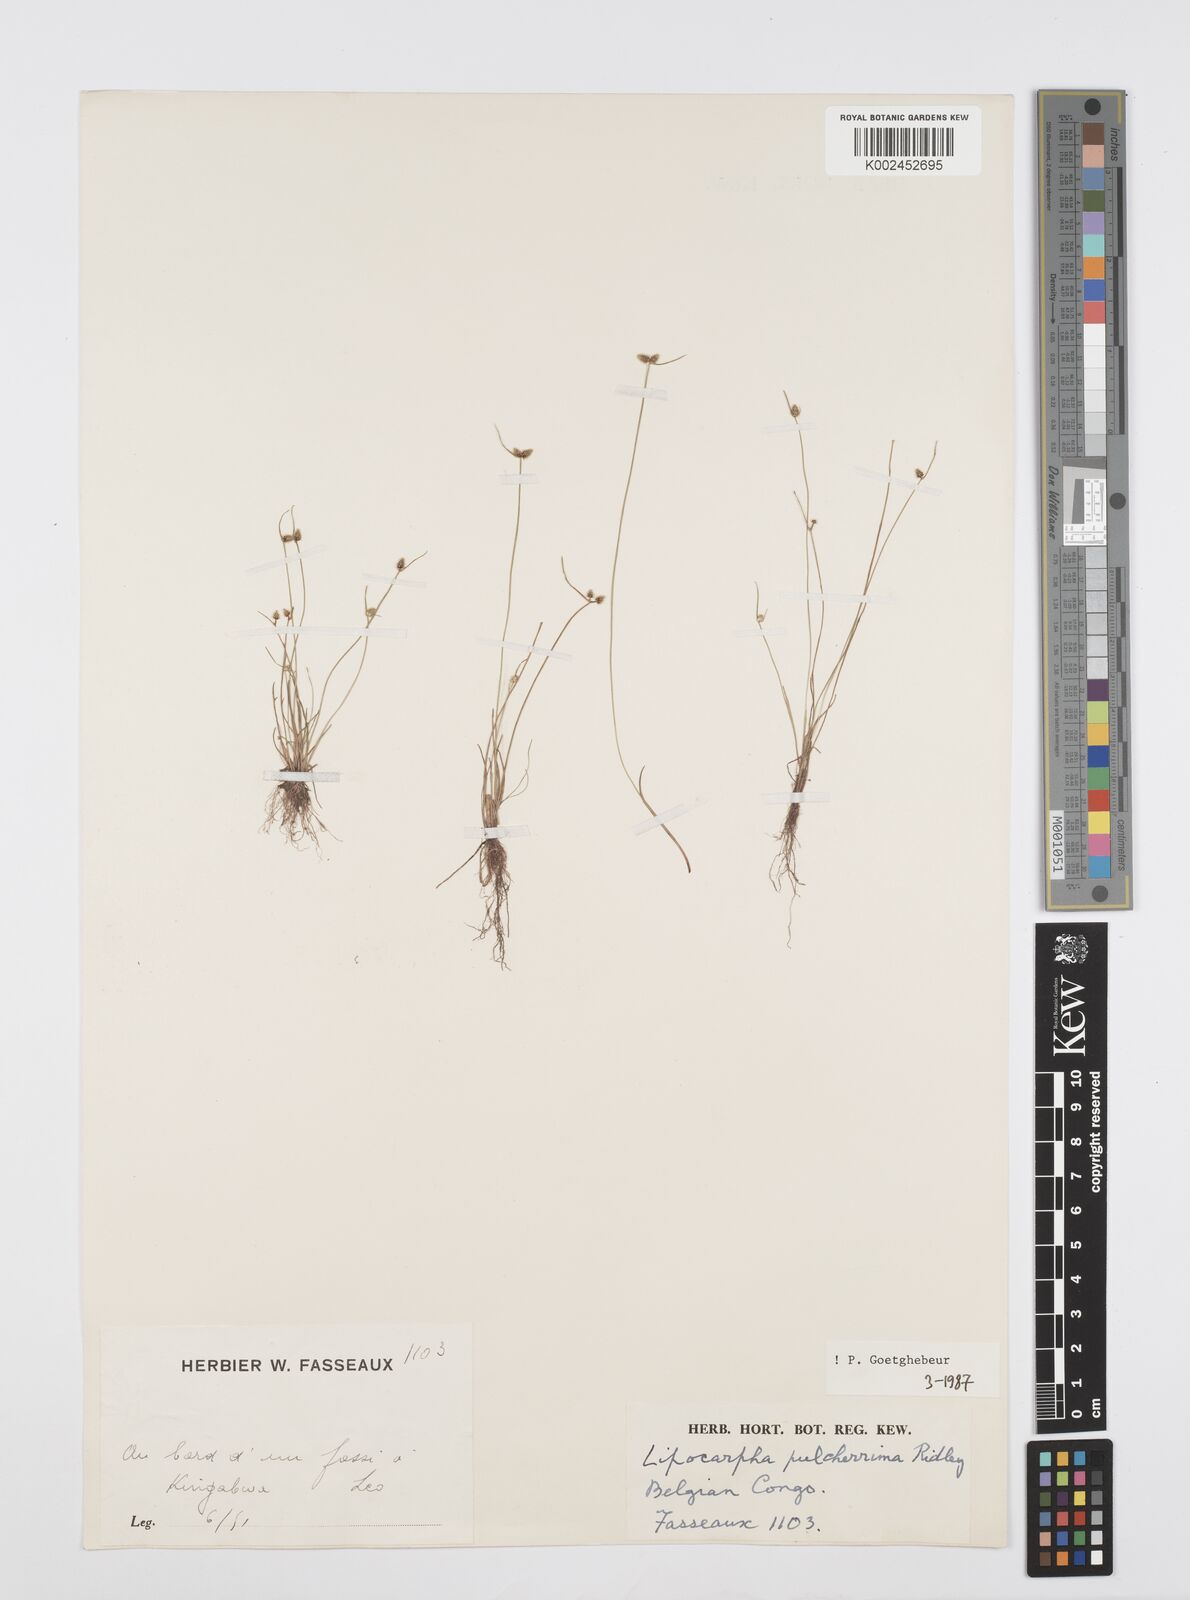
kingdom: Plantae
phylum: Tracheophyta
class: Liliopsida
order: Poales
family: Cyperaceae
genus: Cyperus
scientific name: Cyperus persquarrosus
